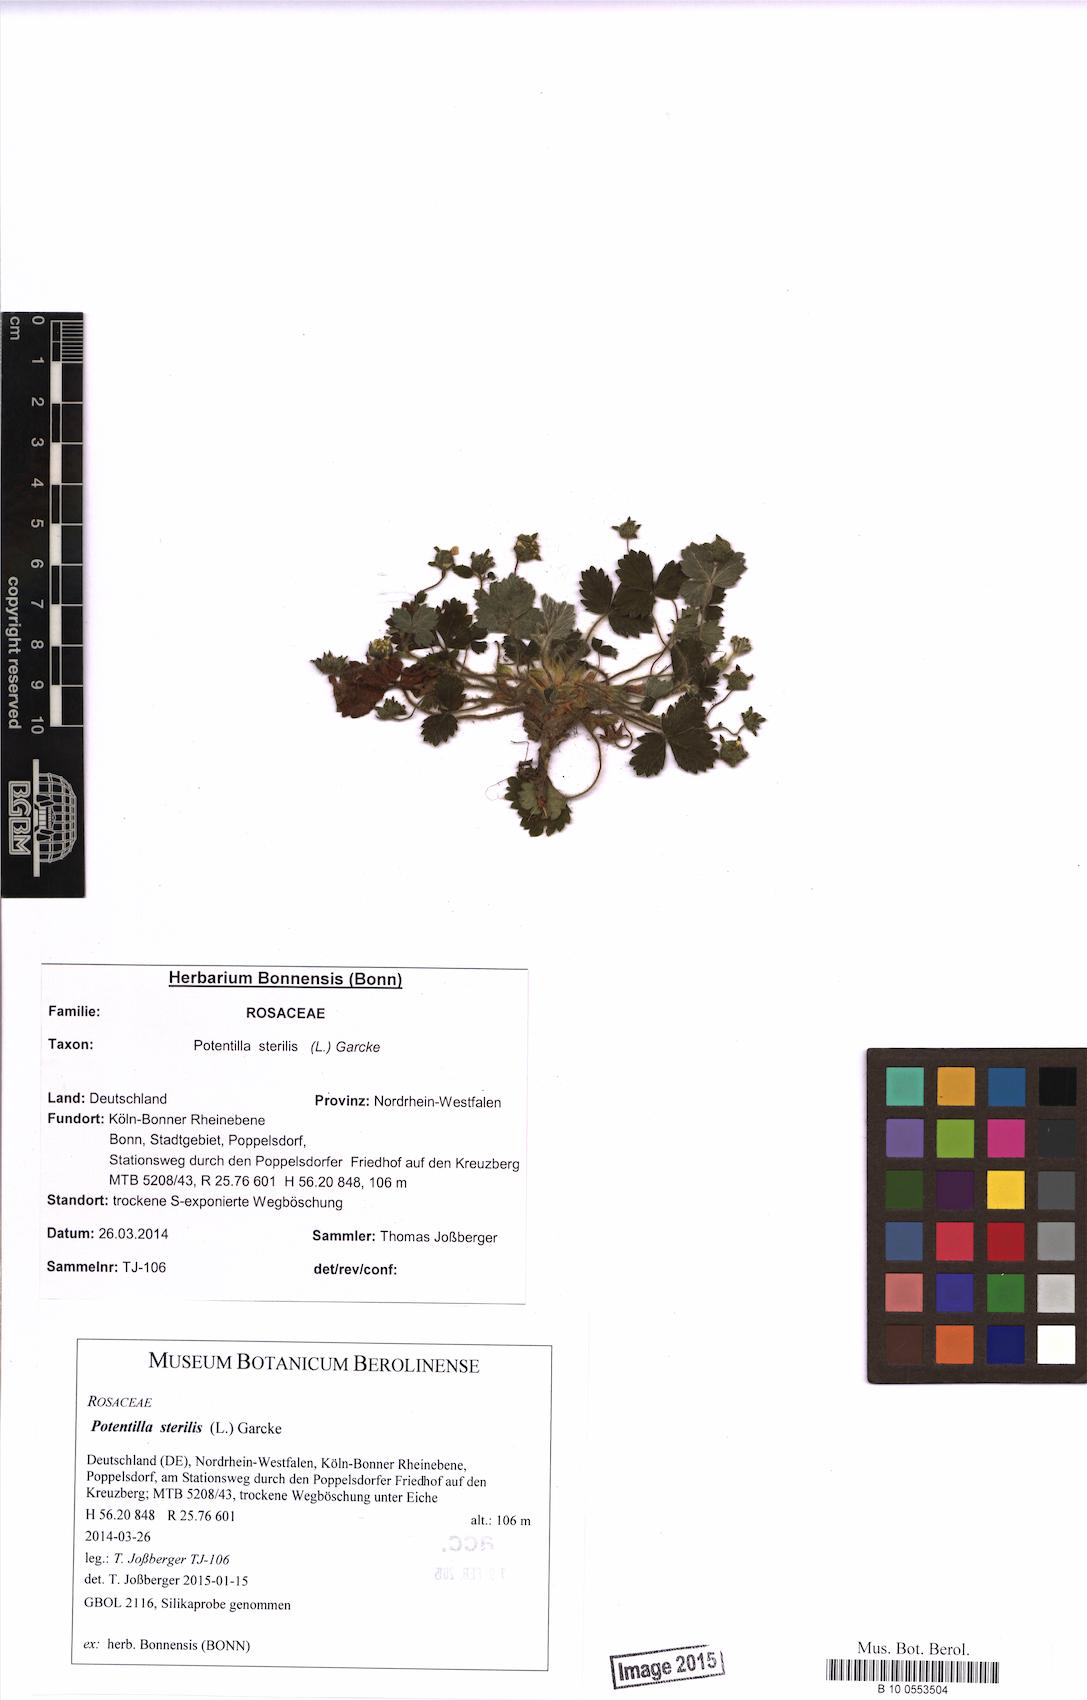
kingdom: Plantae
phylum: Tracheophyta
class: Magnoliopsida
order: Rosales
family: Rosaceae
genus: Potentilla
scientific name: Potentilla sterilis
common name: Barren strawberry
